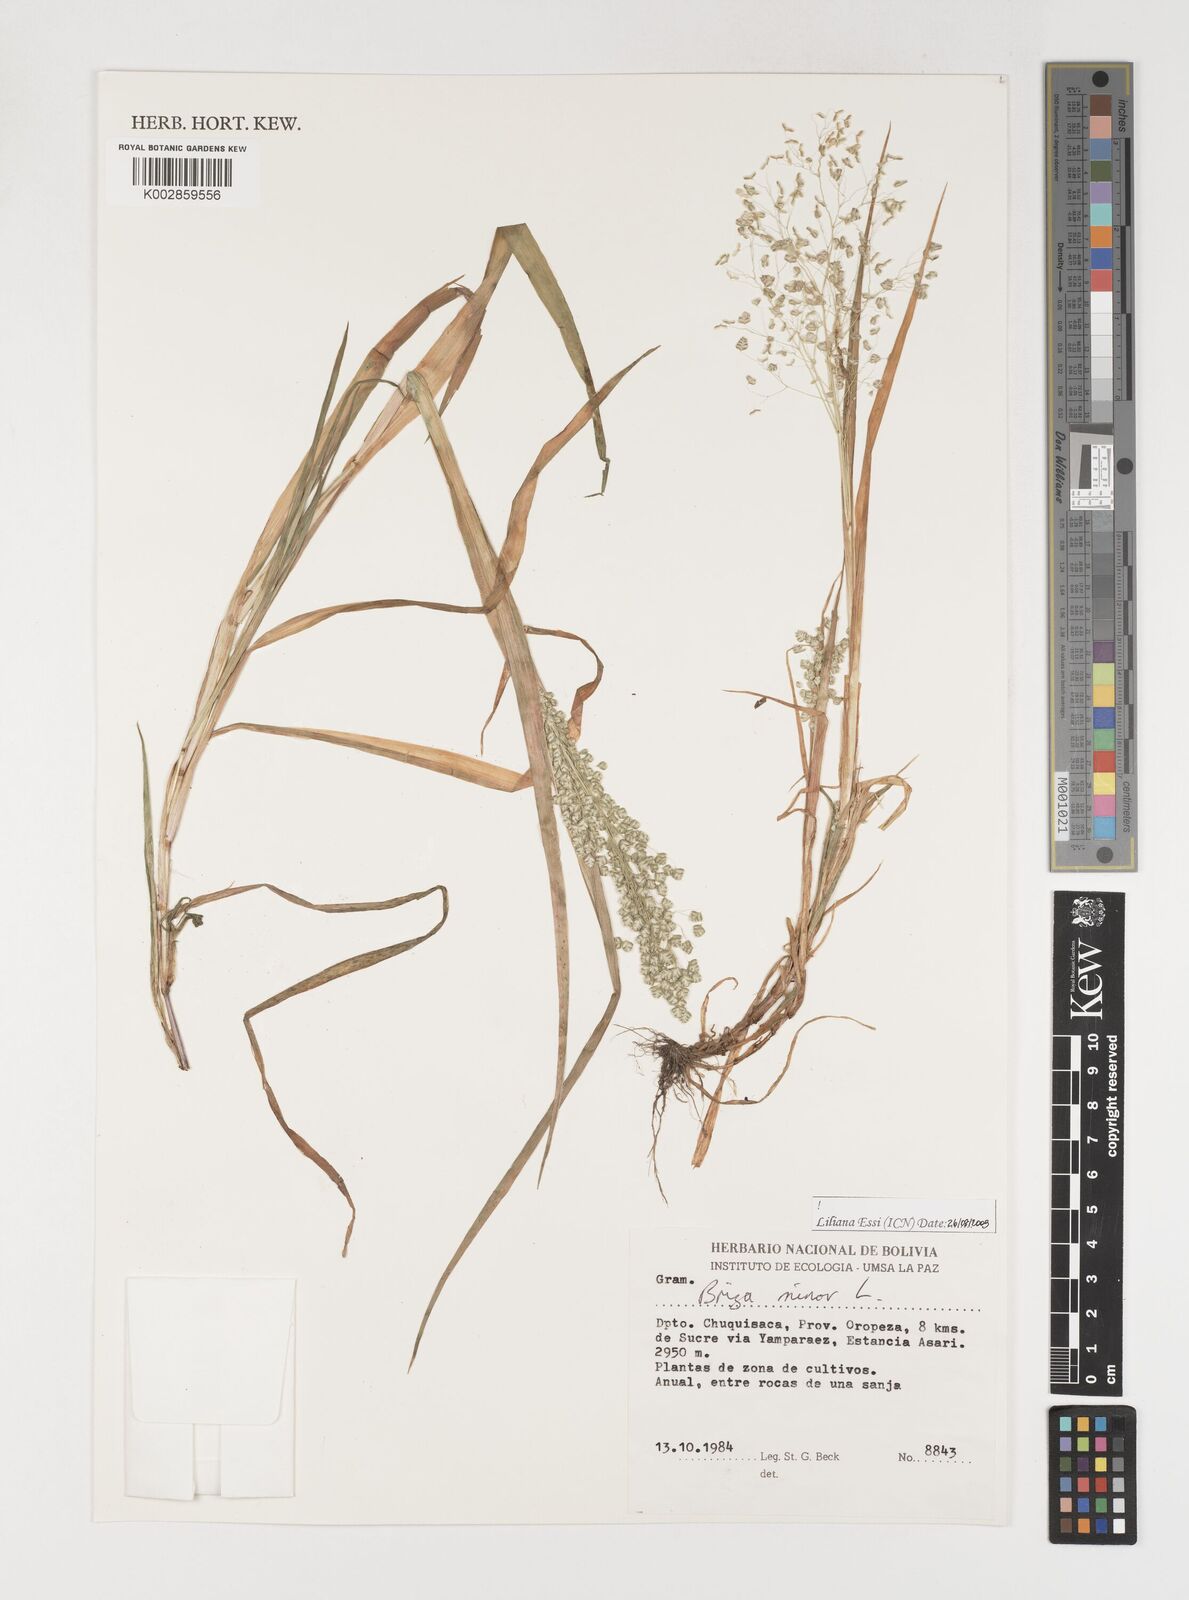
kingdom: Plantae
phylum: Tracheophyta
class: Liliopsida
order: Poales
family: Poaceae
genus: Briza
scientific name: Briza minor
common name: Lesser quaking-grass
